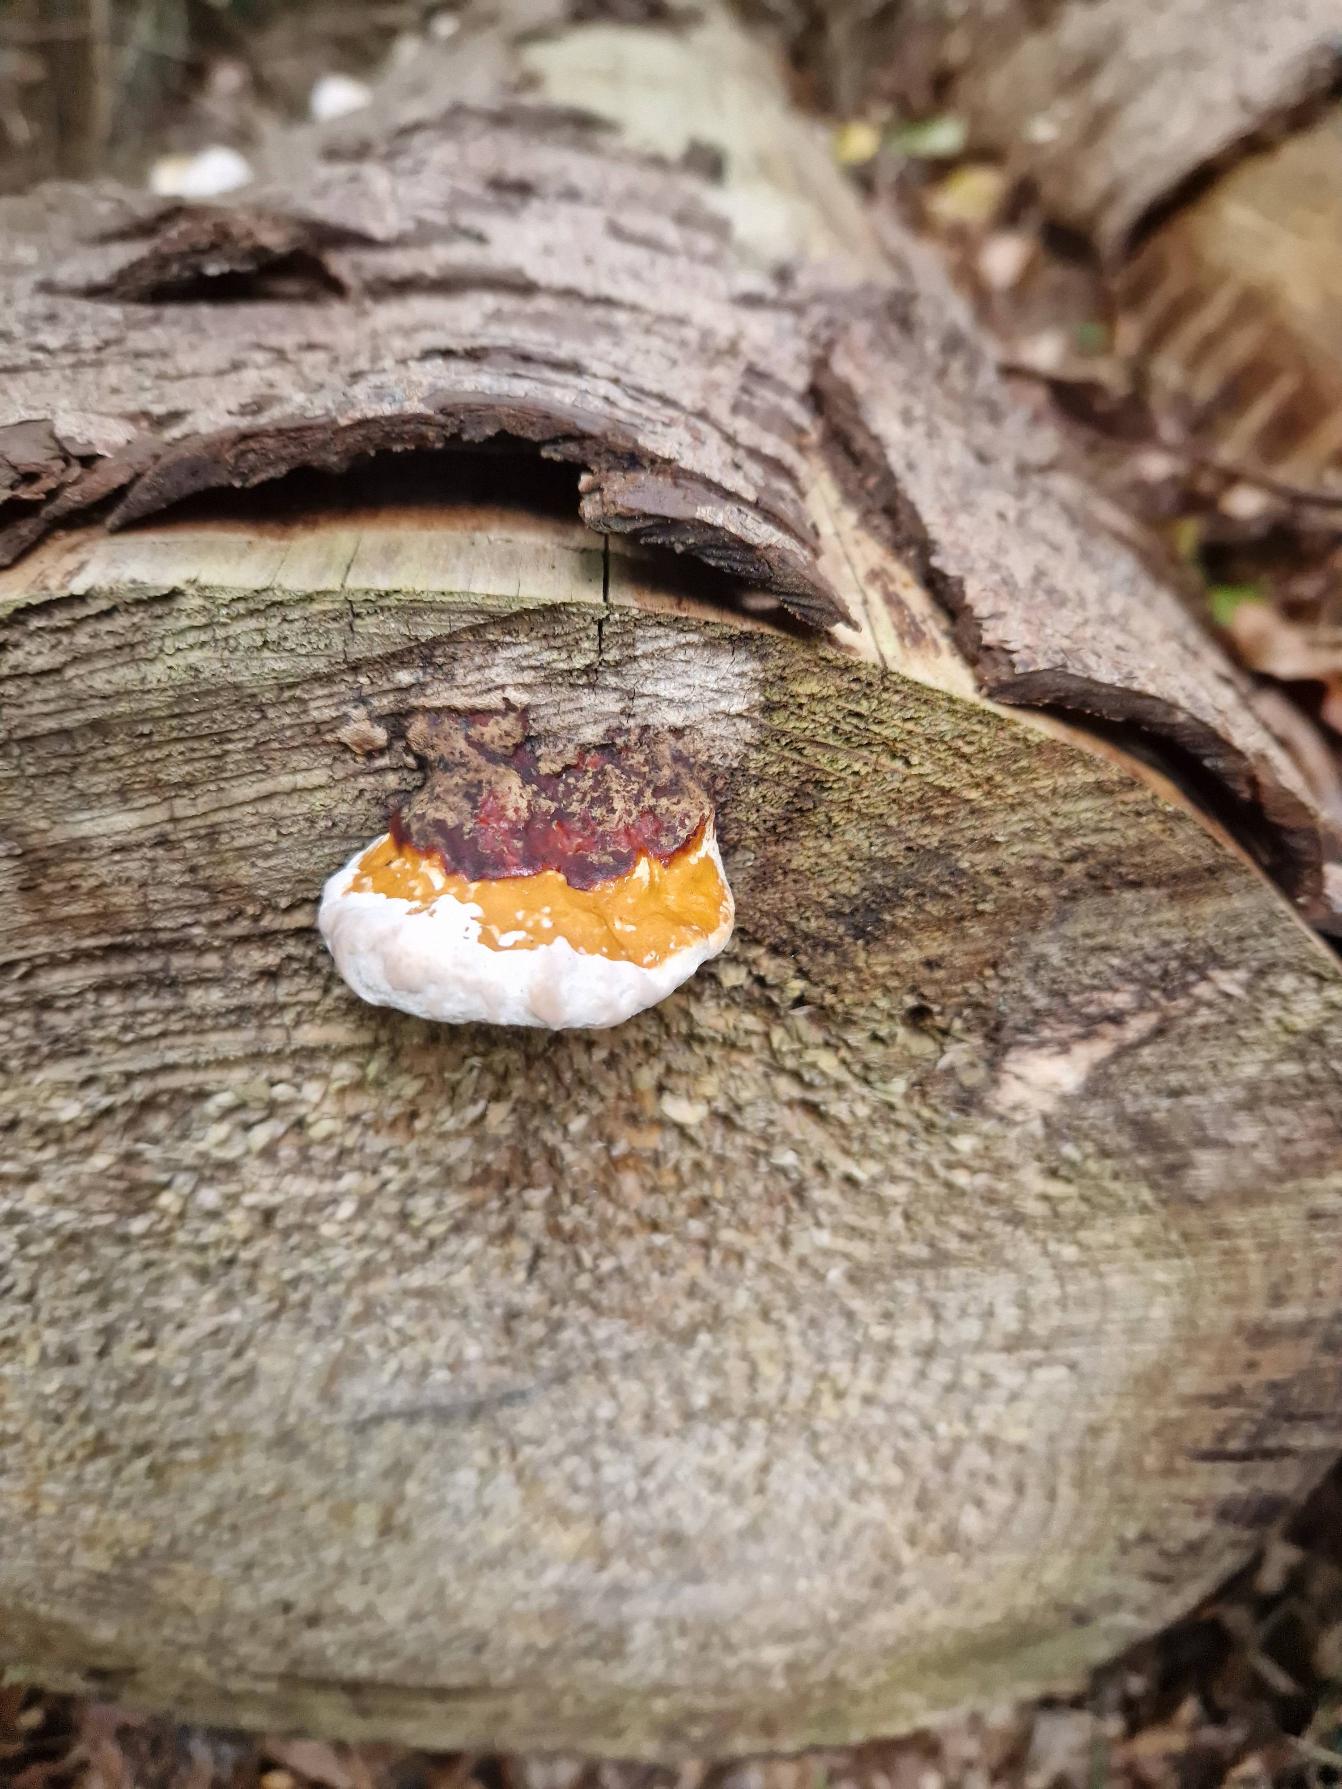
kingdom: Fungi
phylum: Basidiomycota
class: Agaricomycetes
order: Polyporales
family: Fomitopsidaceae
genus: Fomitopsis
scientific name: Fomitopsis pinicola
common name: Randbæltet hovporesvamp
